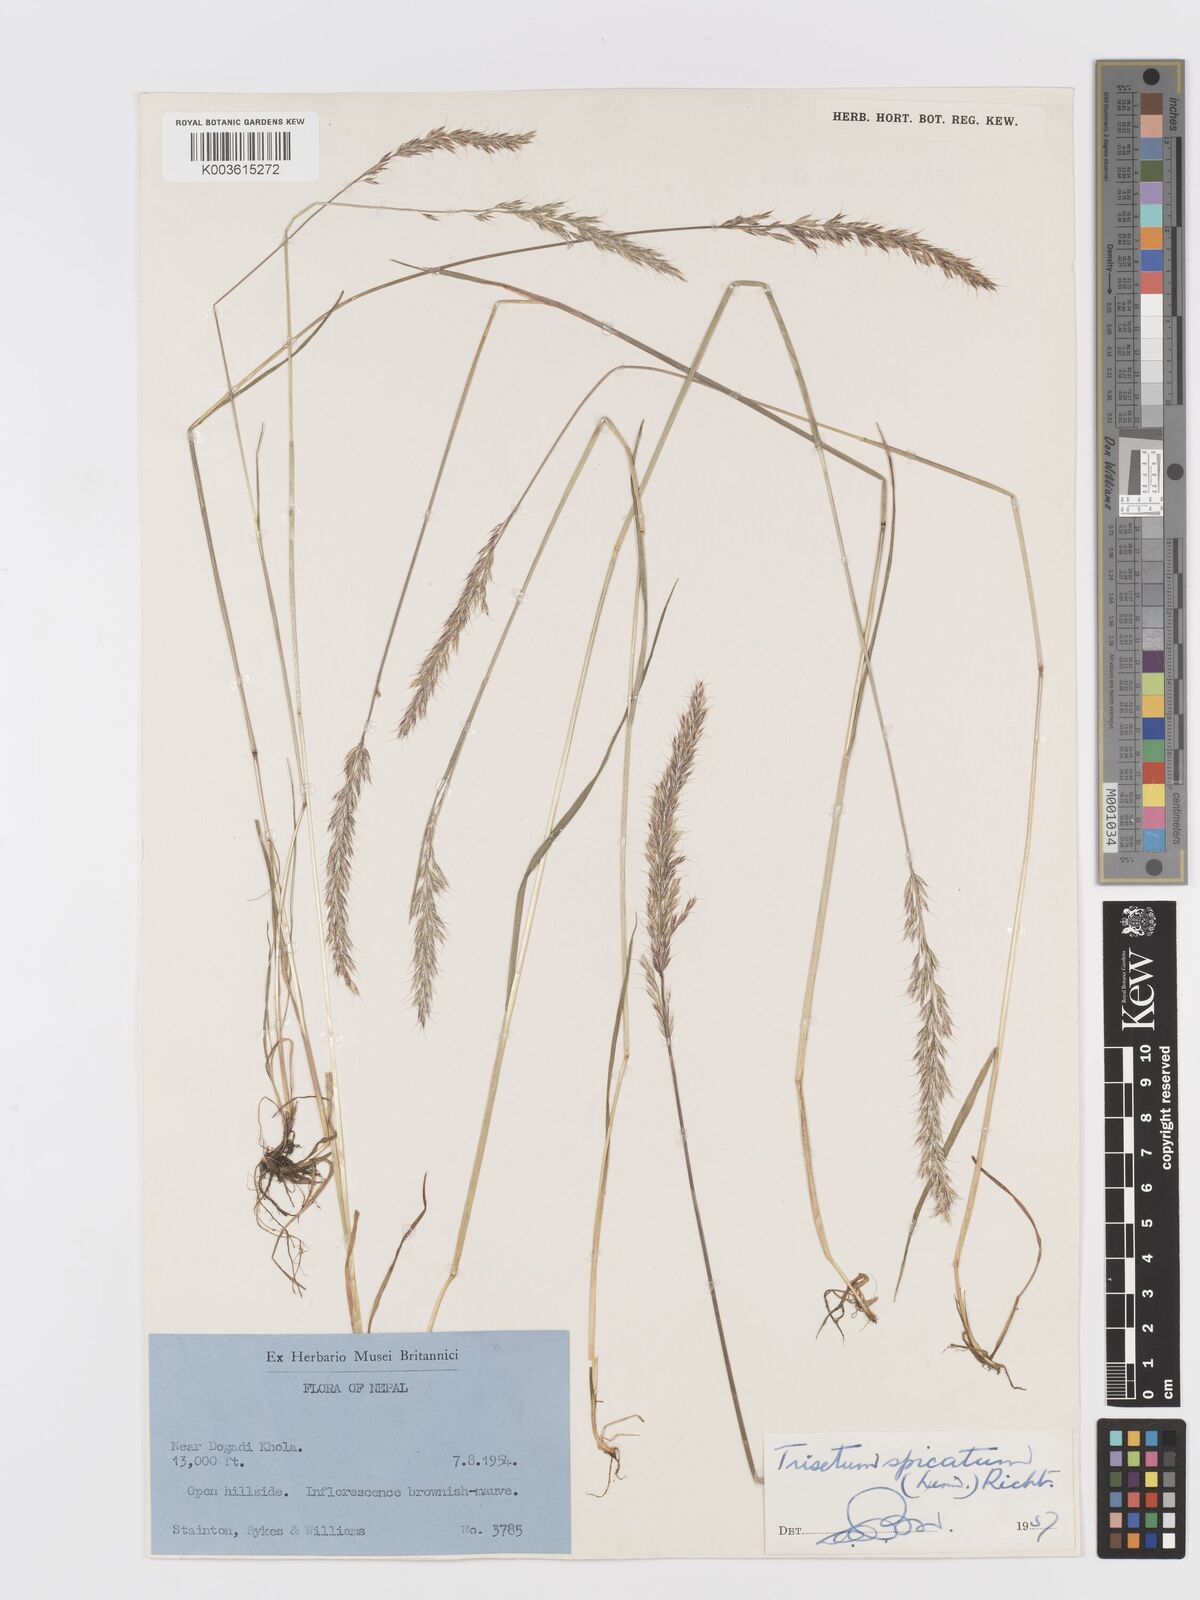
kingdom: Plantae
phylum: Tracheophyta
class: Liliopsida
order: Poales
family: Poaceae
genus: Koeleria
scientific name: Koeleria spicata
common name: Mountain trisetum
